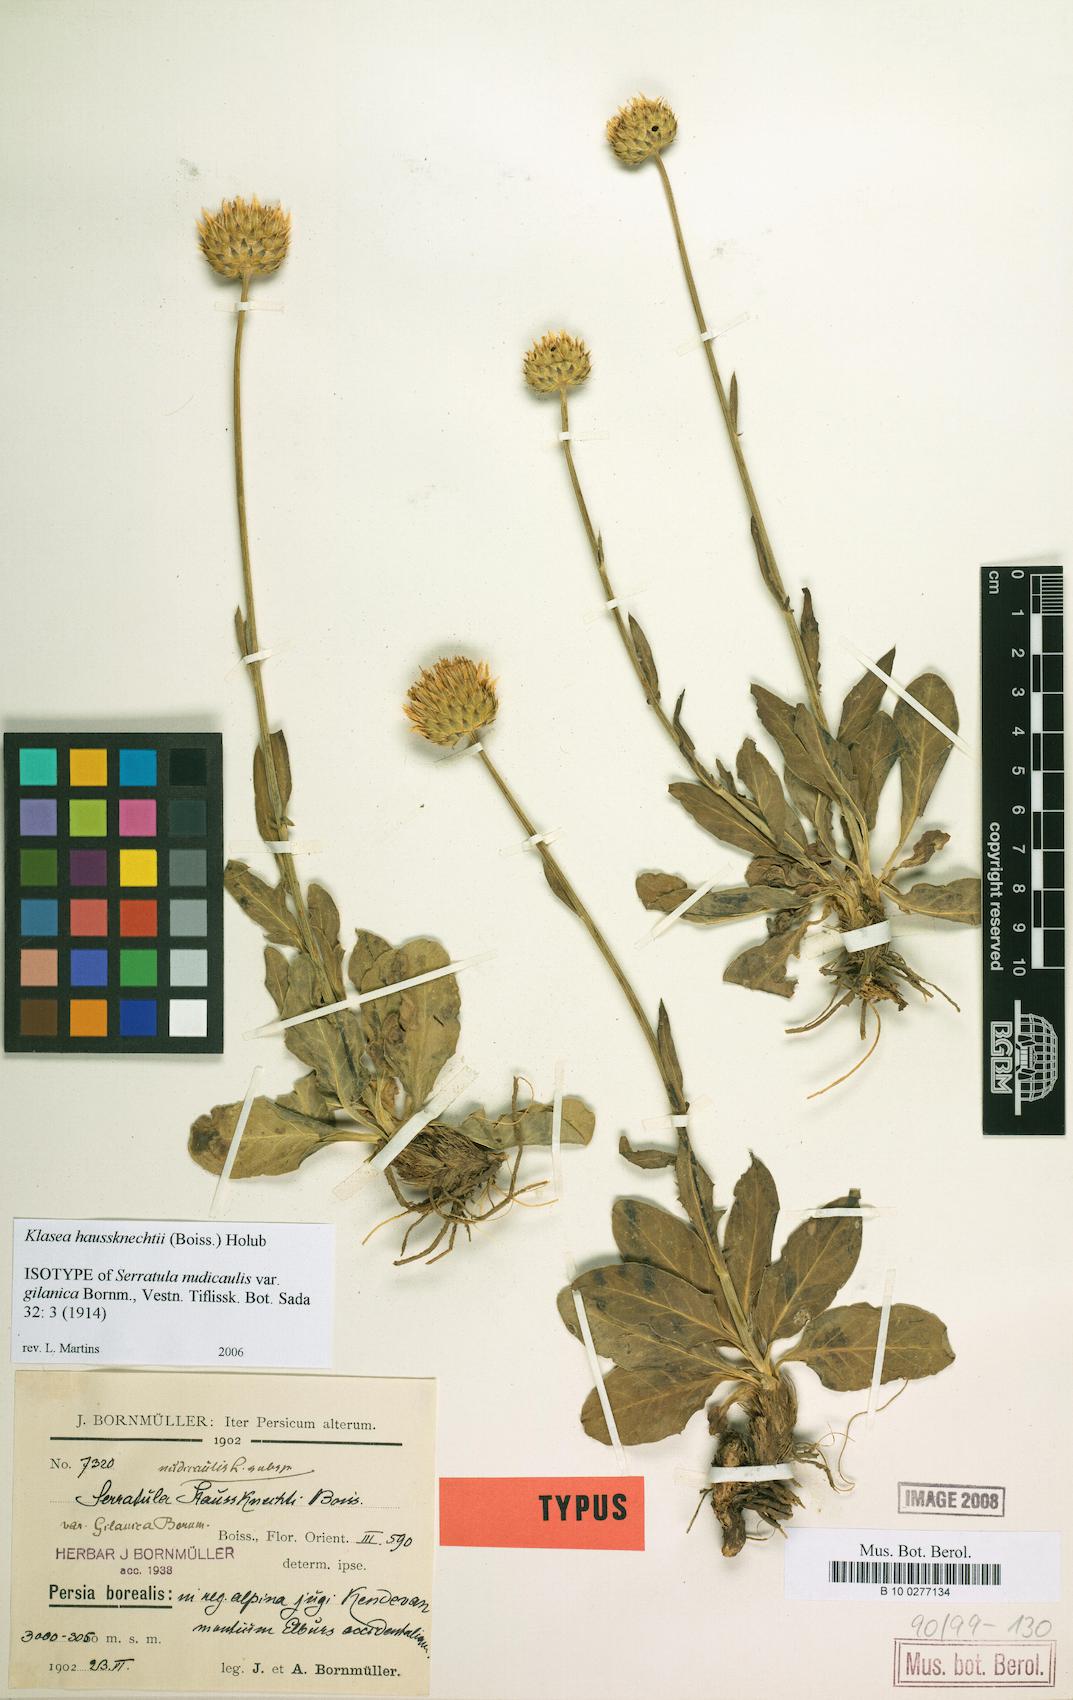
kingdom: Plantae
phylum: Tracheophyta
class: Magnoliopsida
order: Asterales
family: Asteraceae
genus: Klasea
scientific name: Klasea haussknechtii
